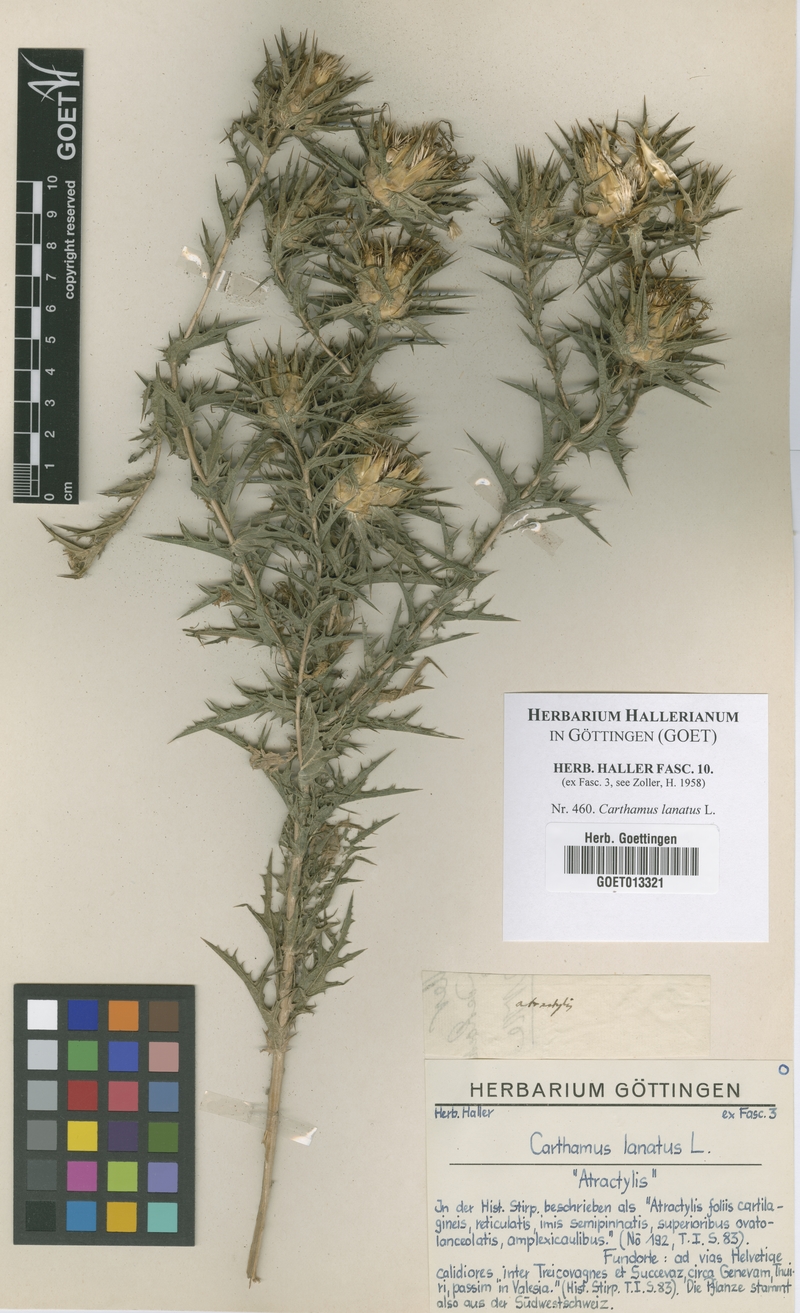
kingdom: Plantae
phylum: Tracheophyta
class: Magnoliopsida
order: Asterales
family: Asteraceae
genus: Carthamus
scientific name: Carthamus lanatus
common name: Downy safflower
